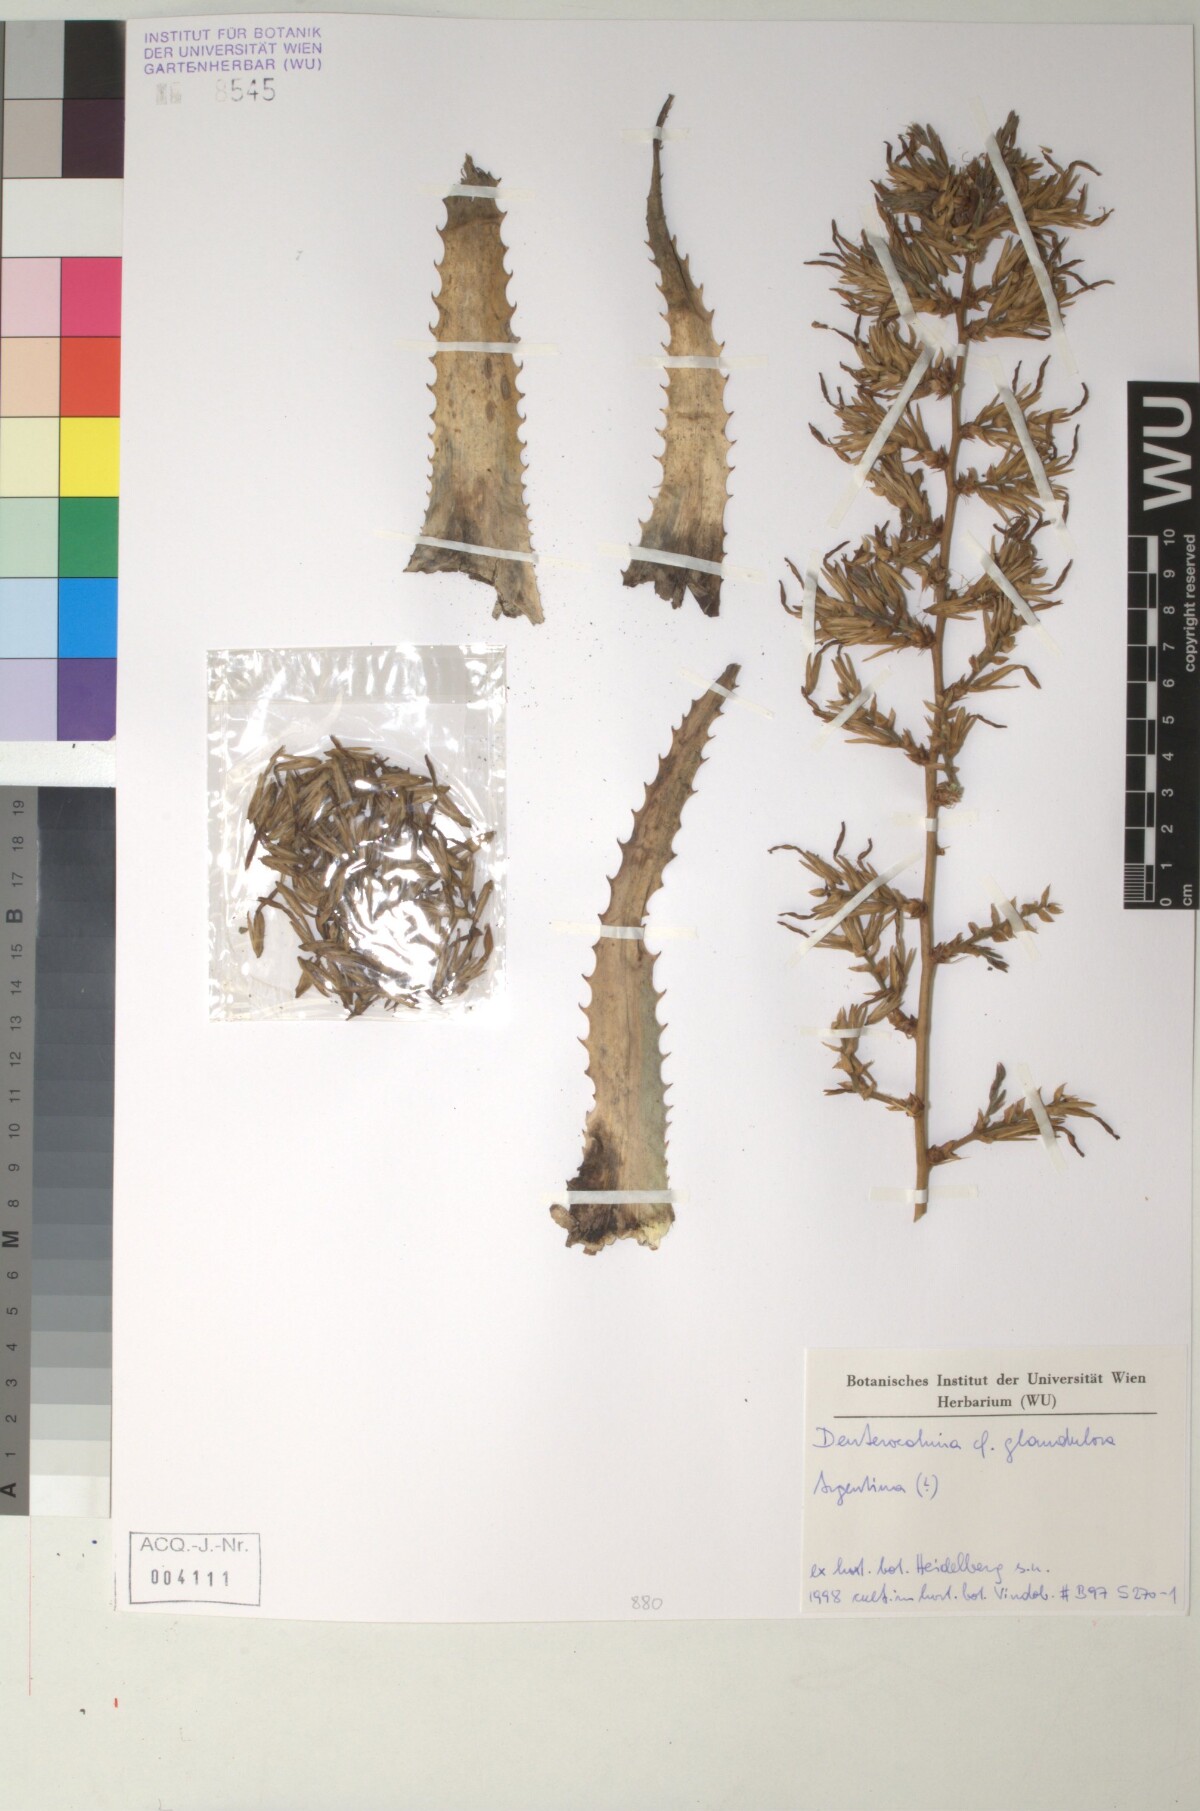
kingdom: Plantae
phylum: Tracheophyta
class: Liliopsida
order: Poales
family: Bromeliaceae
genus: Deuterocohnia
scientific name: Deuterocohnia glandulosa
